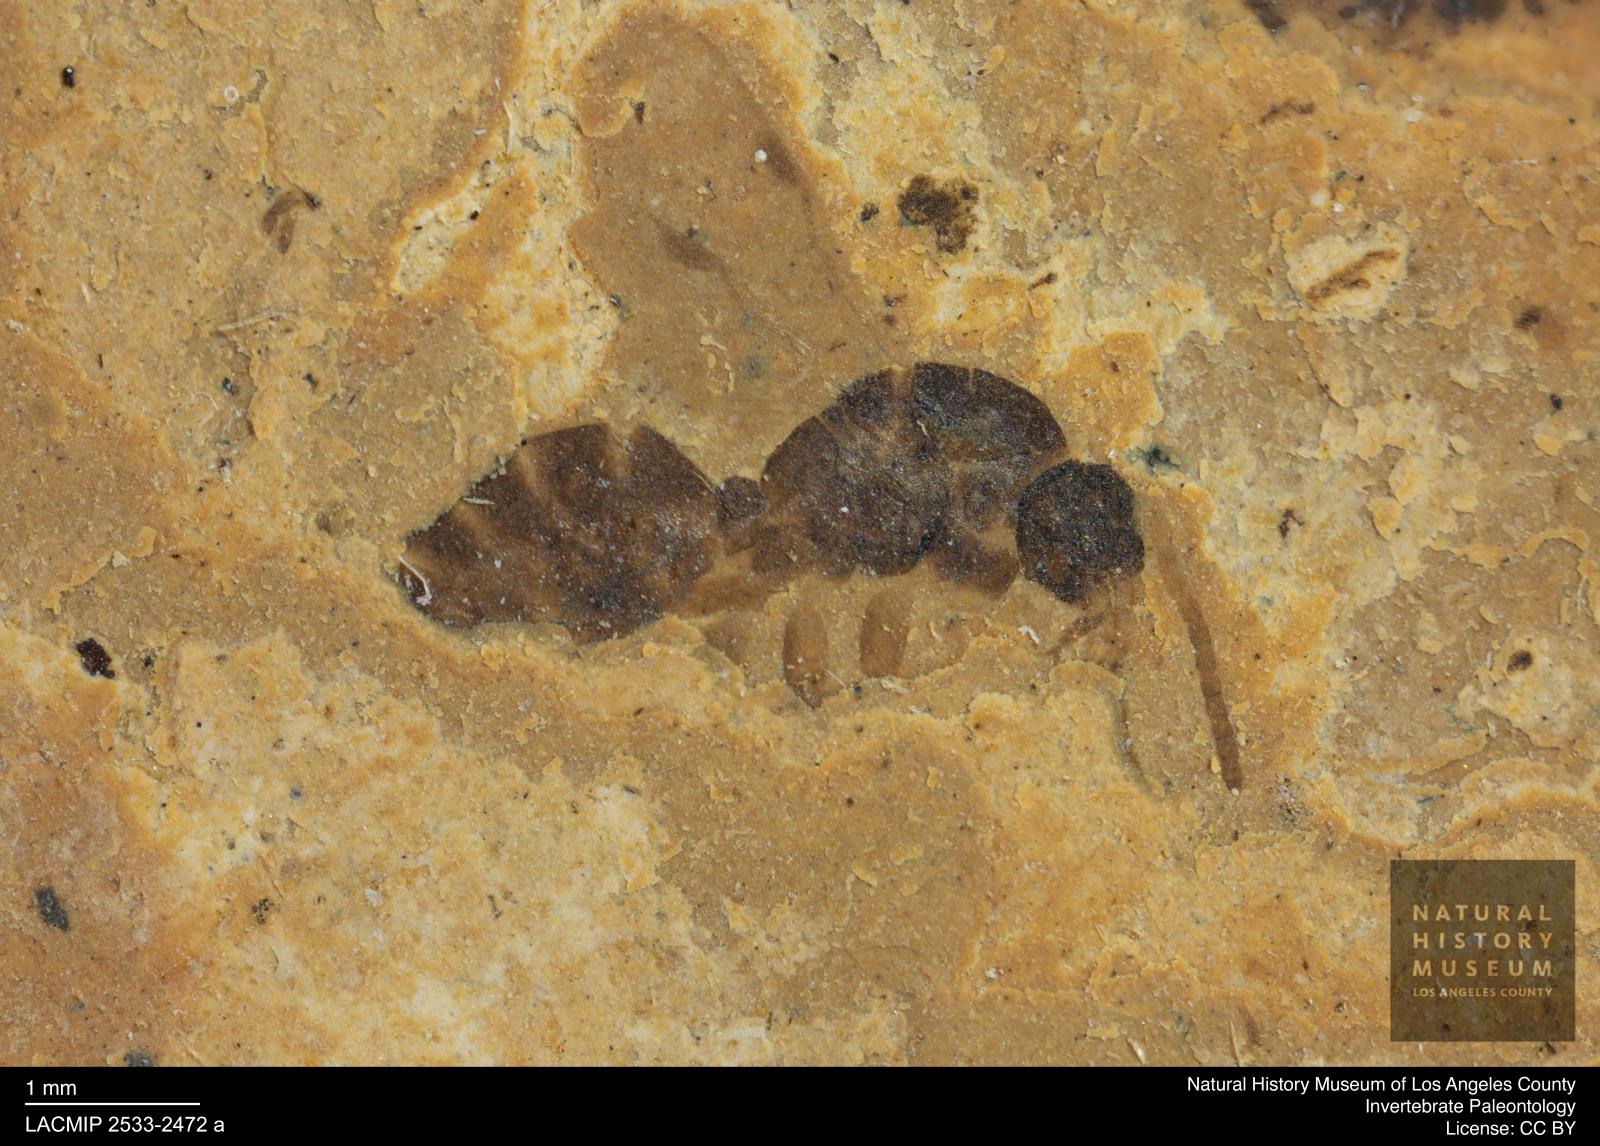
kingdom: Animalia
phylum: Arthropoda
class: Insecta
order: Hymenoptera
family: Formicidae
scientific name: Formicidae
